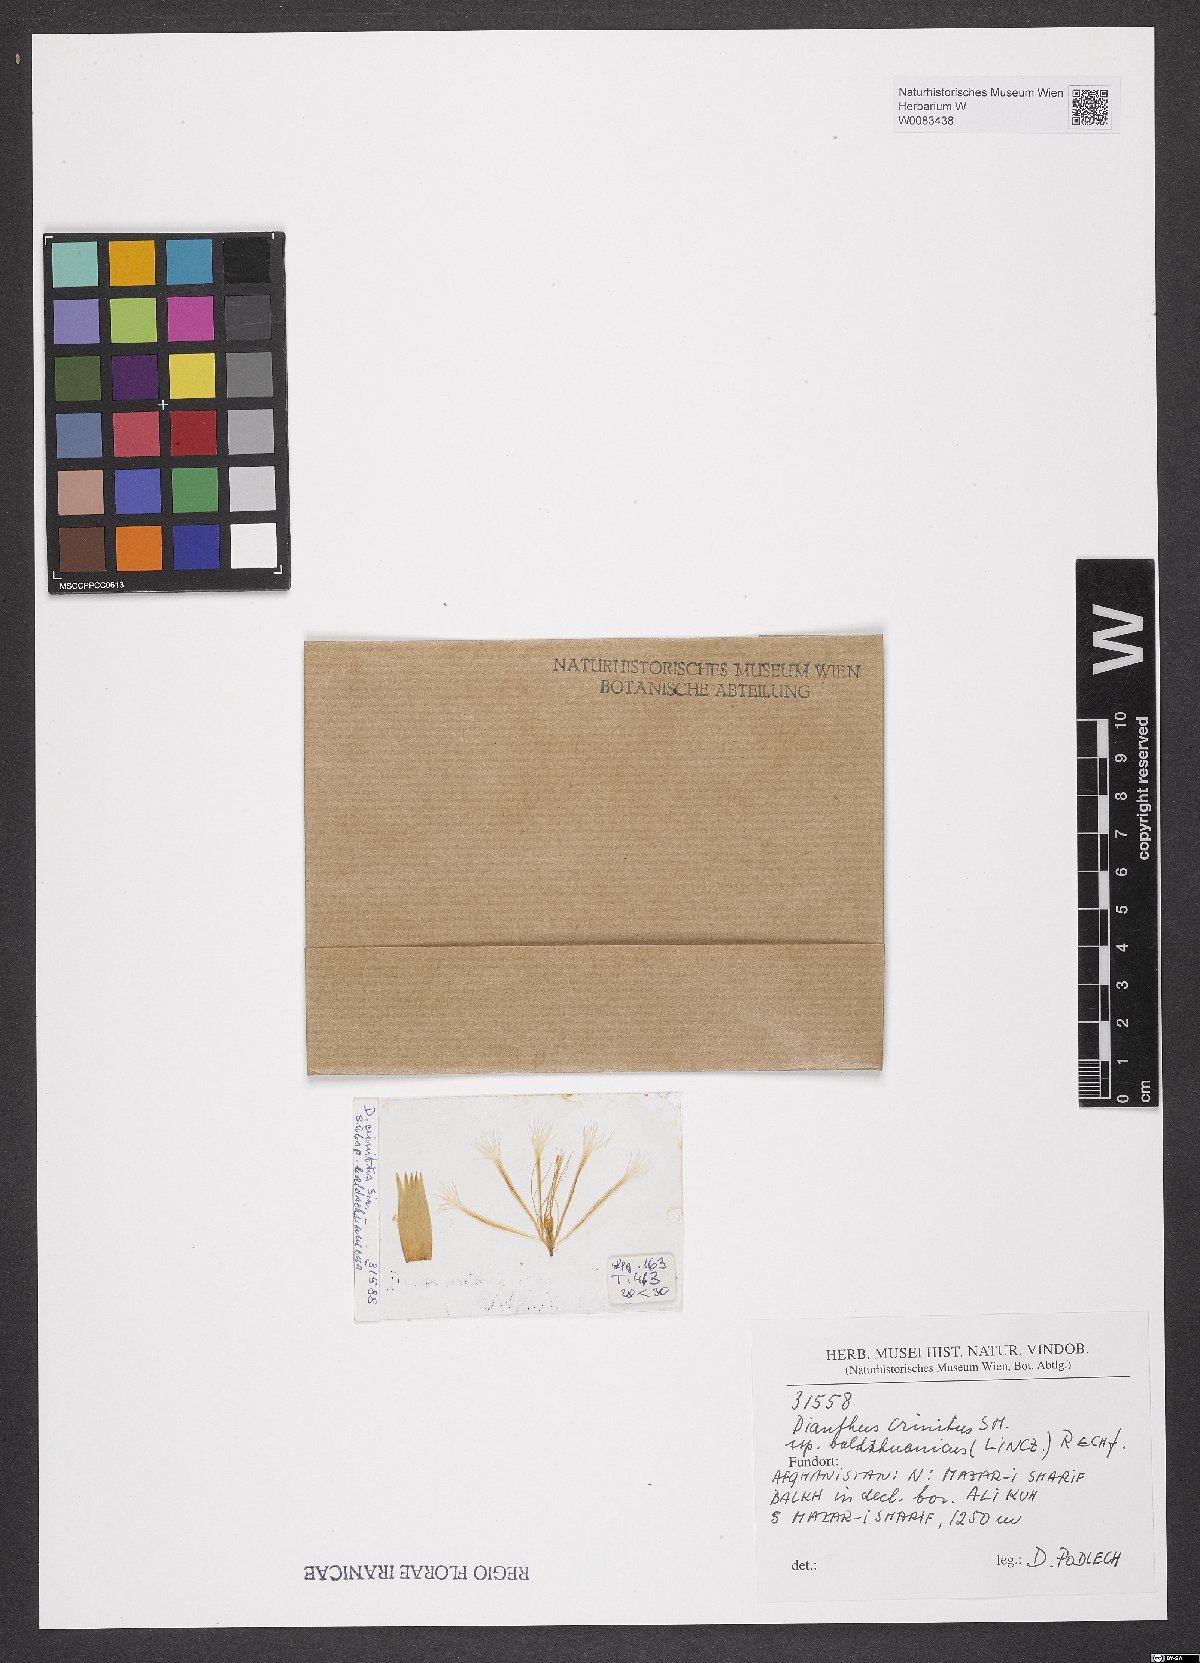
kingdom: Plantae
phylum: Tracheophyta
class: Magnoliopsida
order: Caryophyllales
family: Caryophyllaceae
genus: Dianthus
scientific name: Dianthus crinitus
